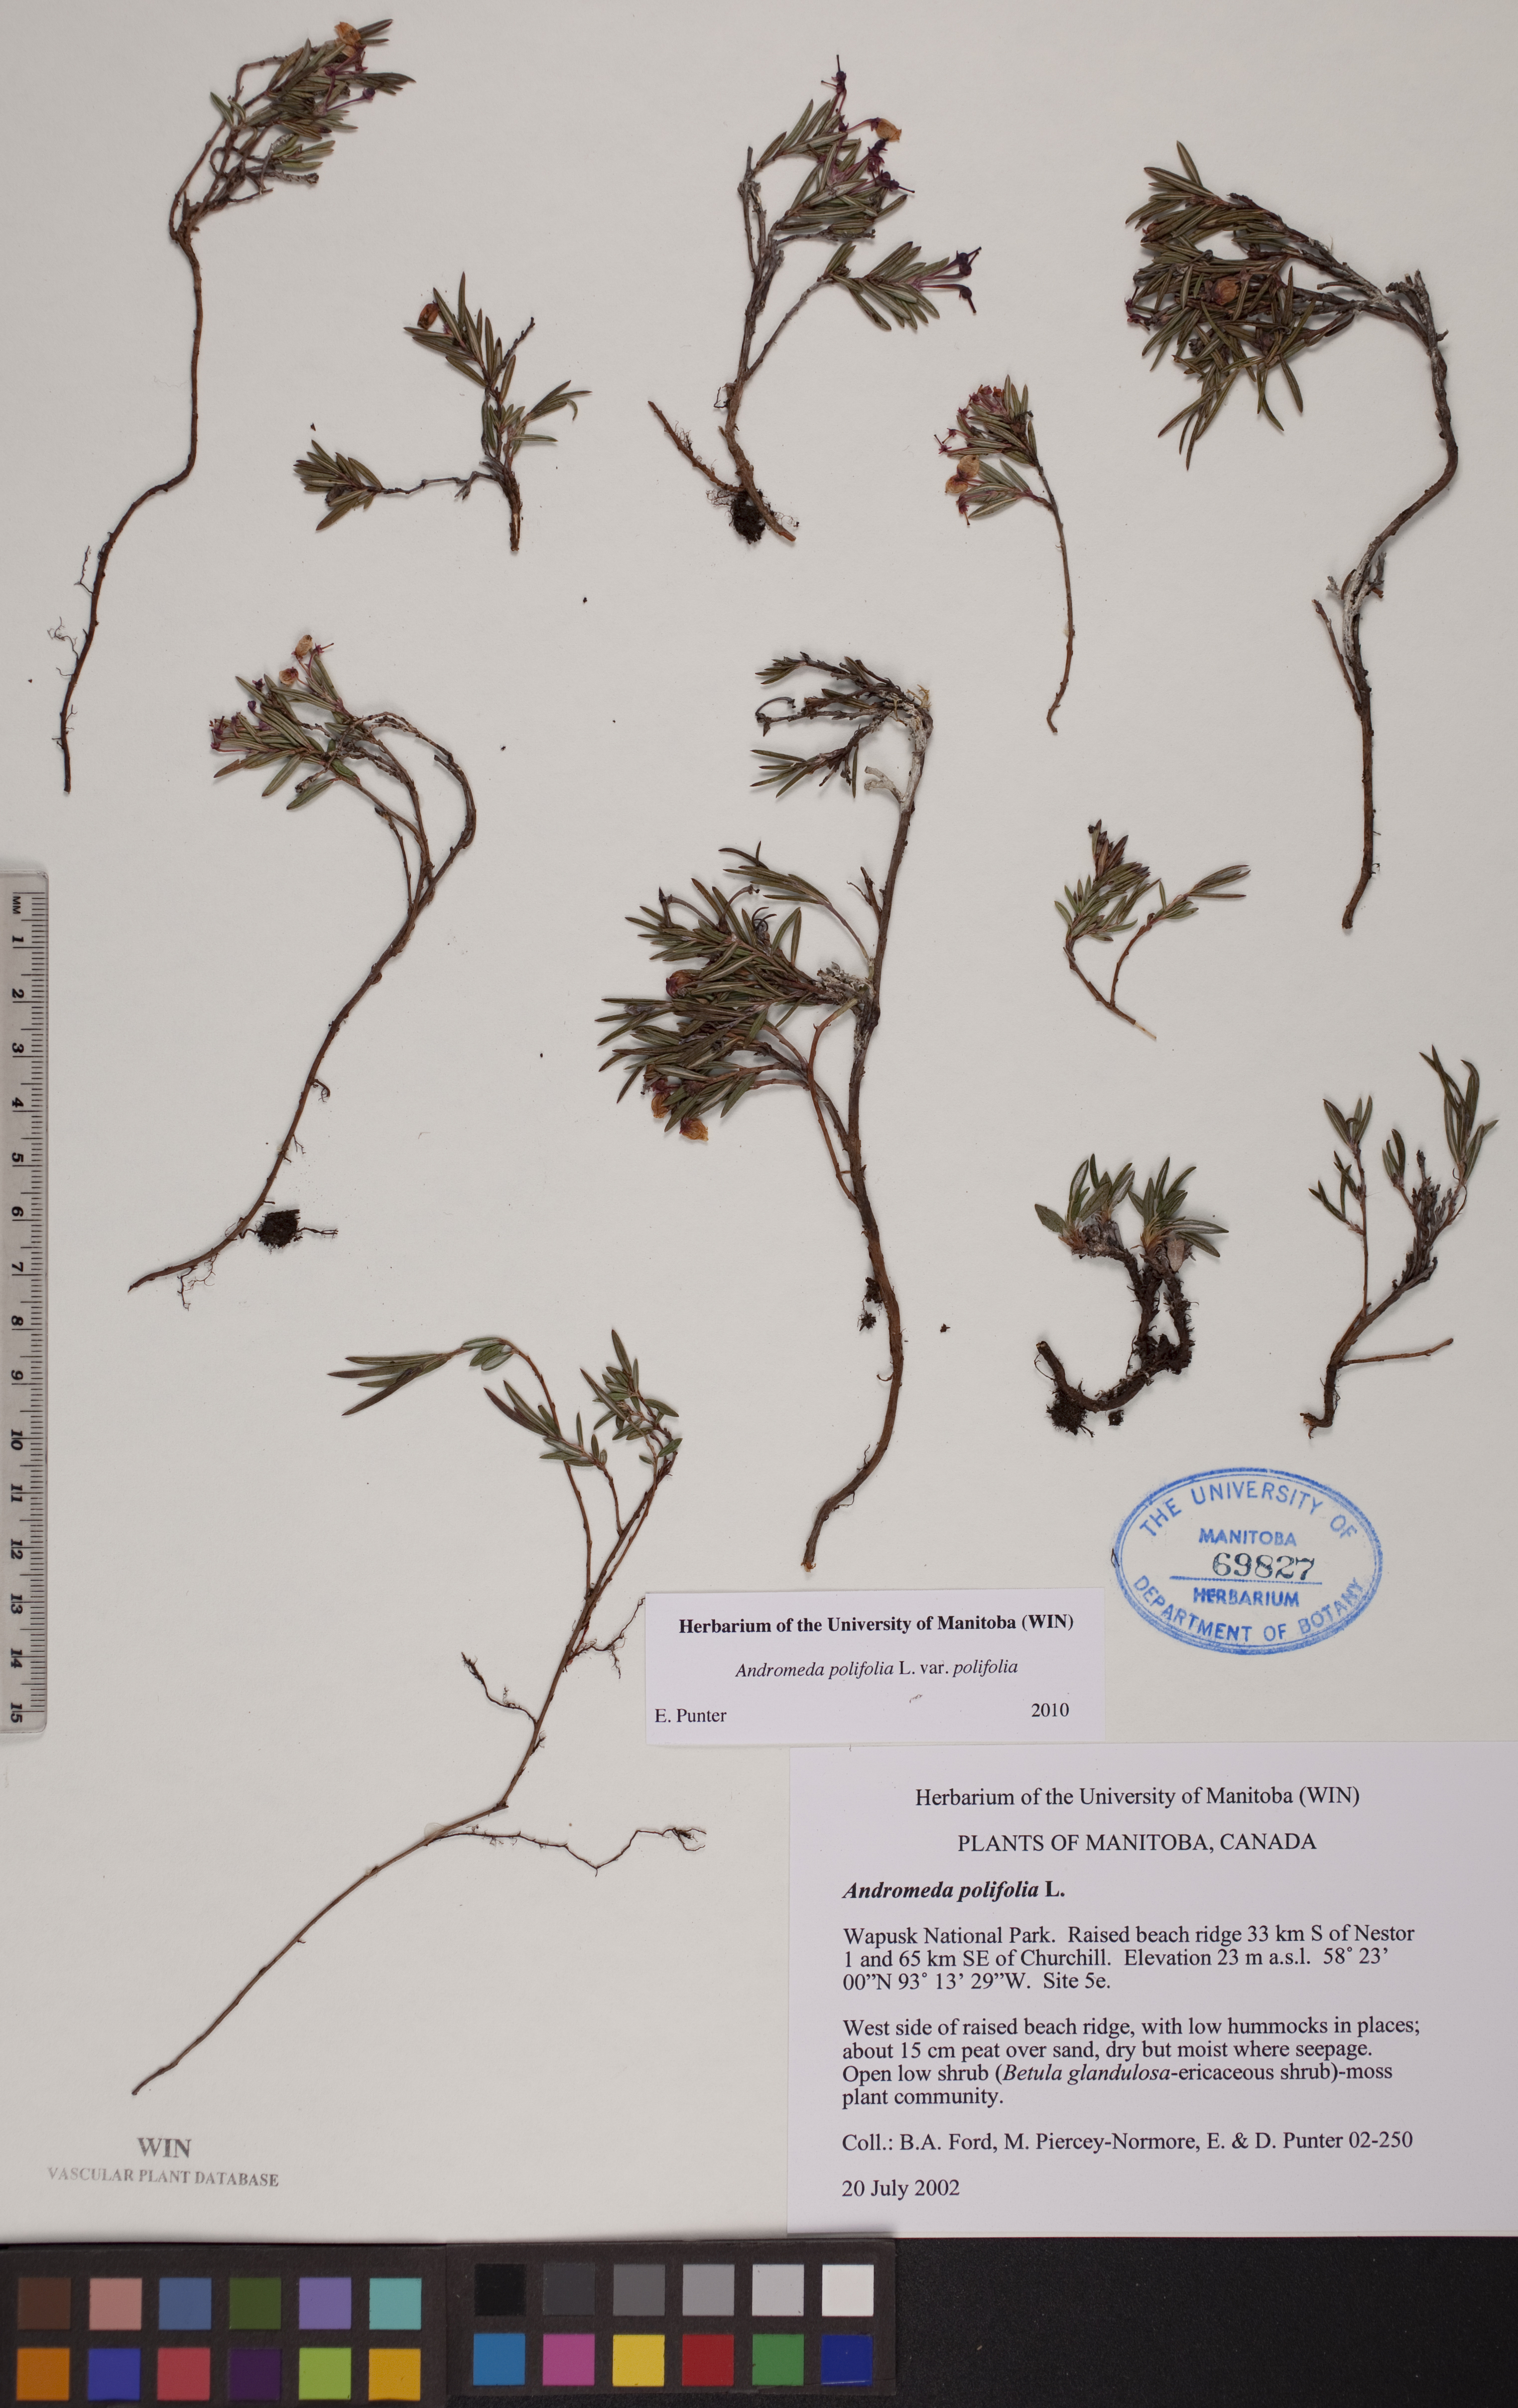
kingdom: Plantae
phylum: Tracheophyta
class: Magnoliopsida
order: Ericales
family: Ericaceae
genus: Andromeda
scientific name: Andromeda polifolia
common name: Bog-rosemary
